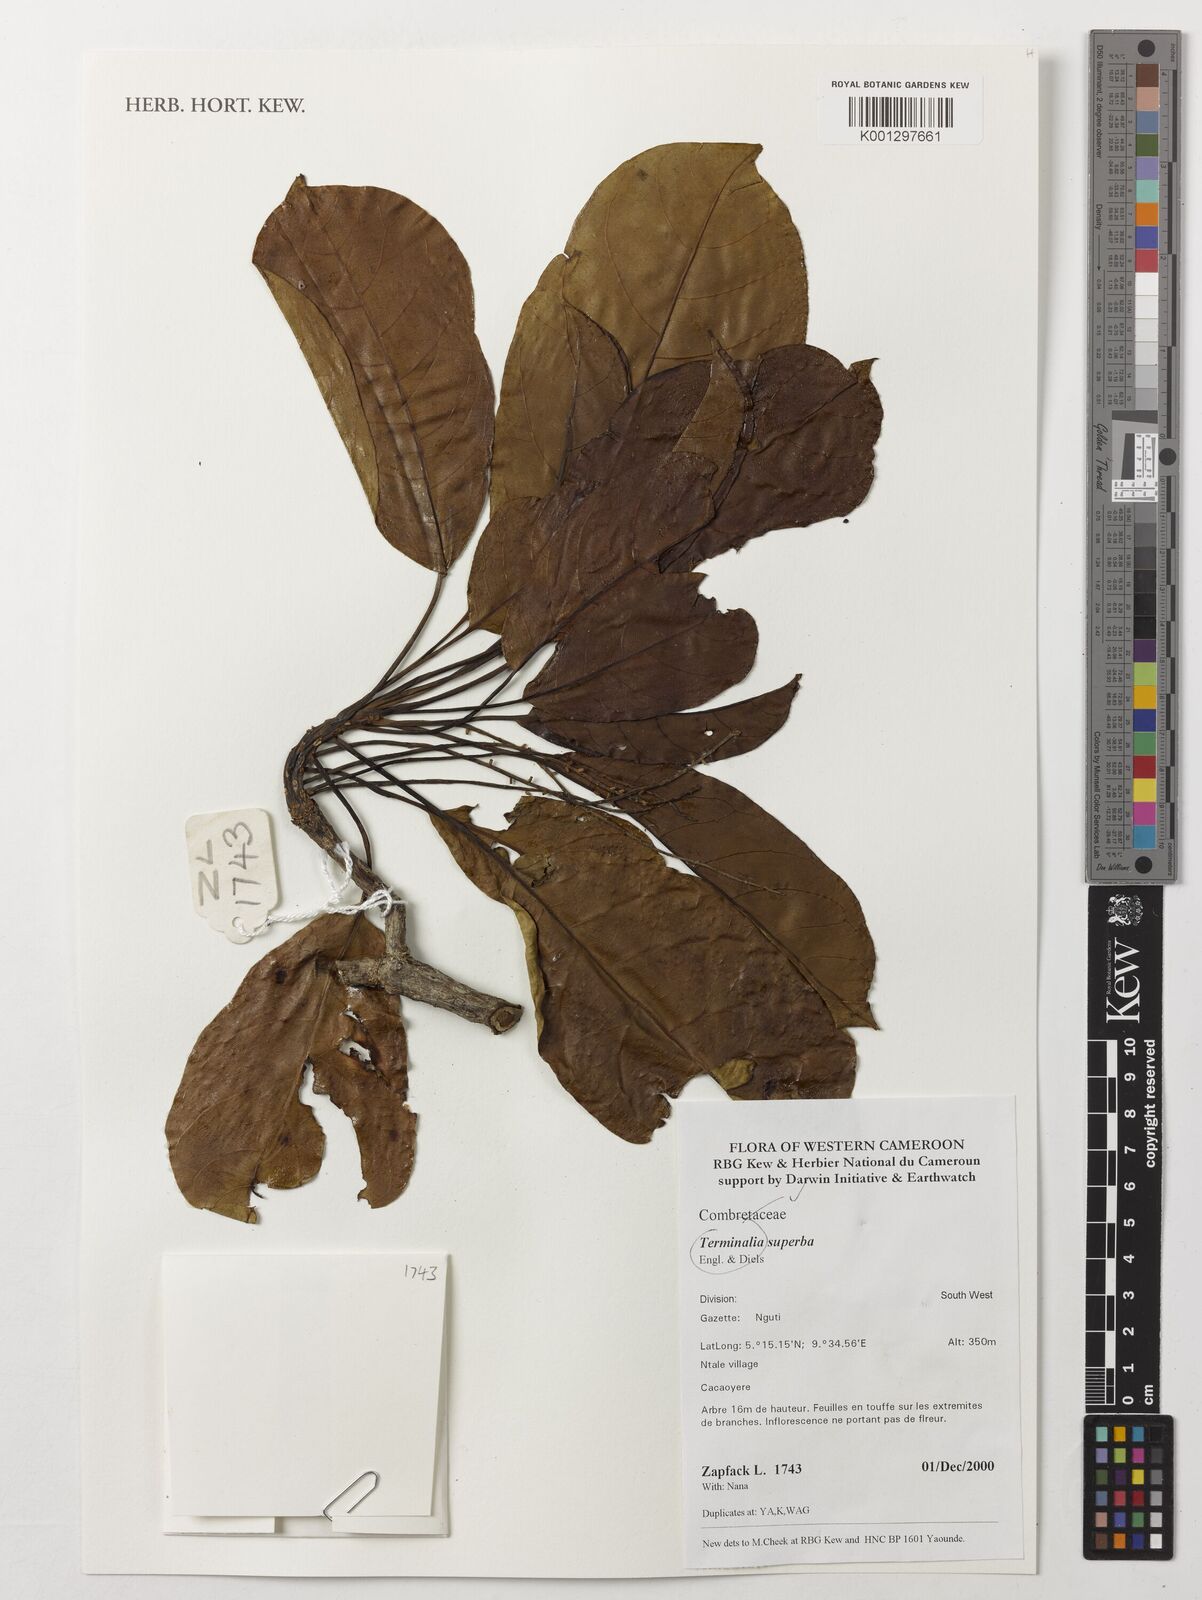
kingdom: Plantae
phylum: Tracheophyta
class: Magnoliopsida
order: Myrtales
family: Combretaceae
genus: Terminalia
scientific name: Terminalia superba
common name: White afara
